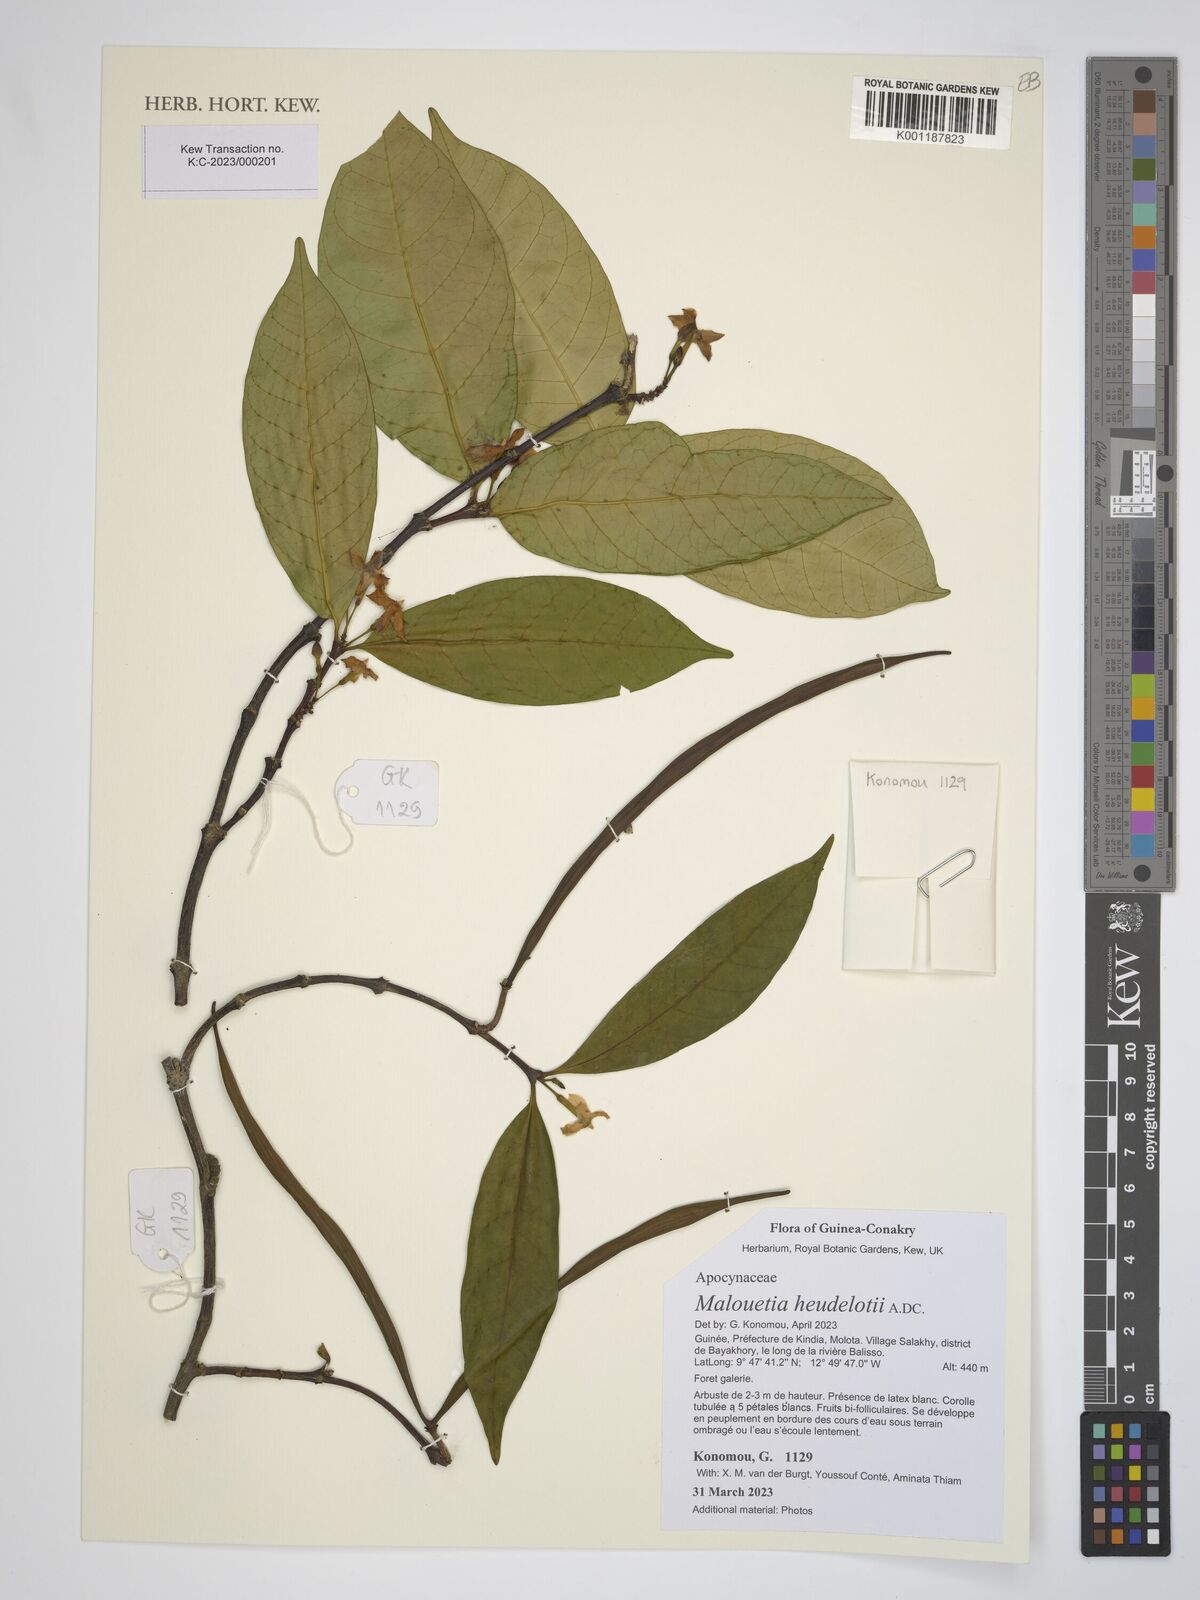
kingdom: Plantae
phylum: Tracheophyta
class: Magnoliopsida
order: Gentianales
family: Apocynaceae
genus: Malouetia
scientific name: Malouetia heudelotii
